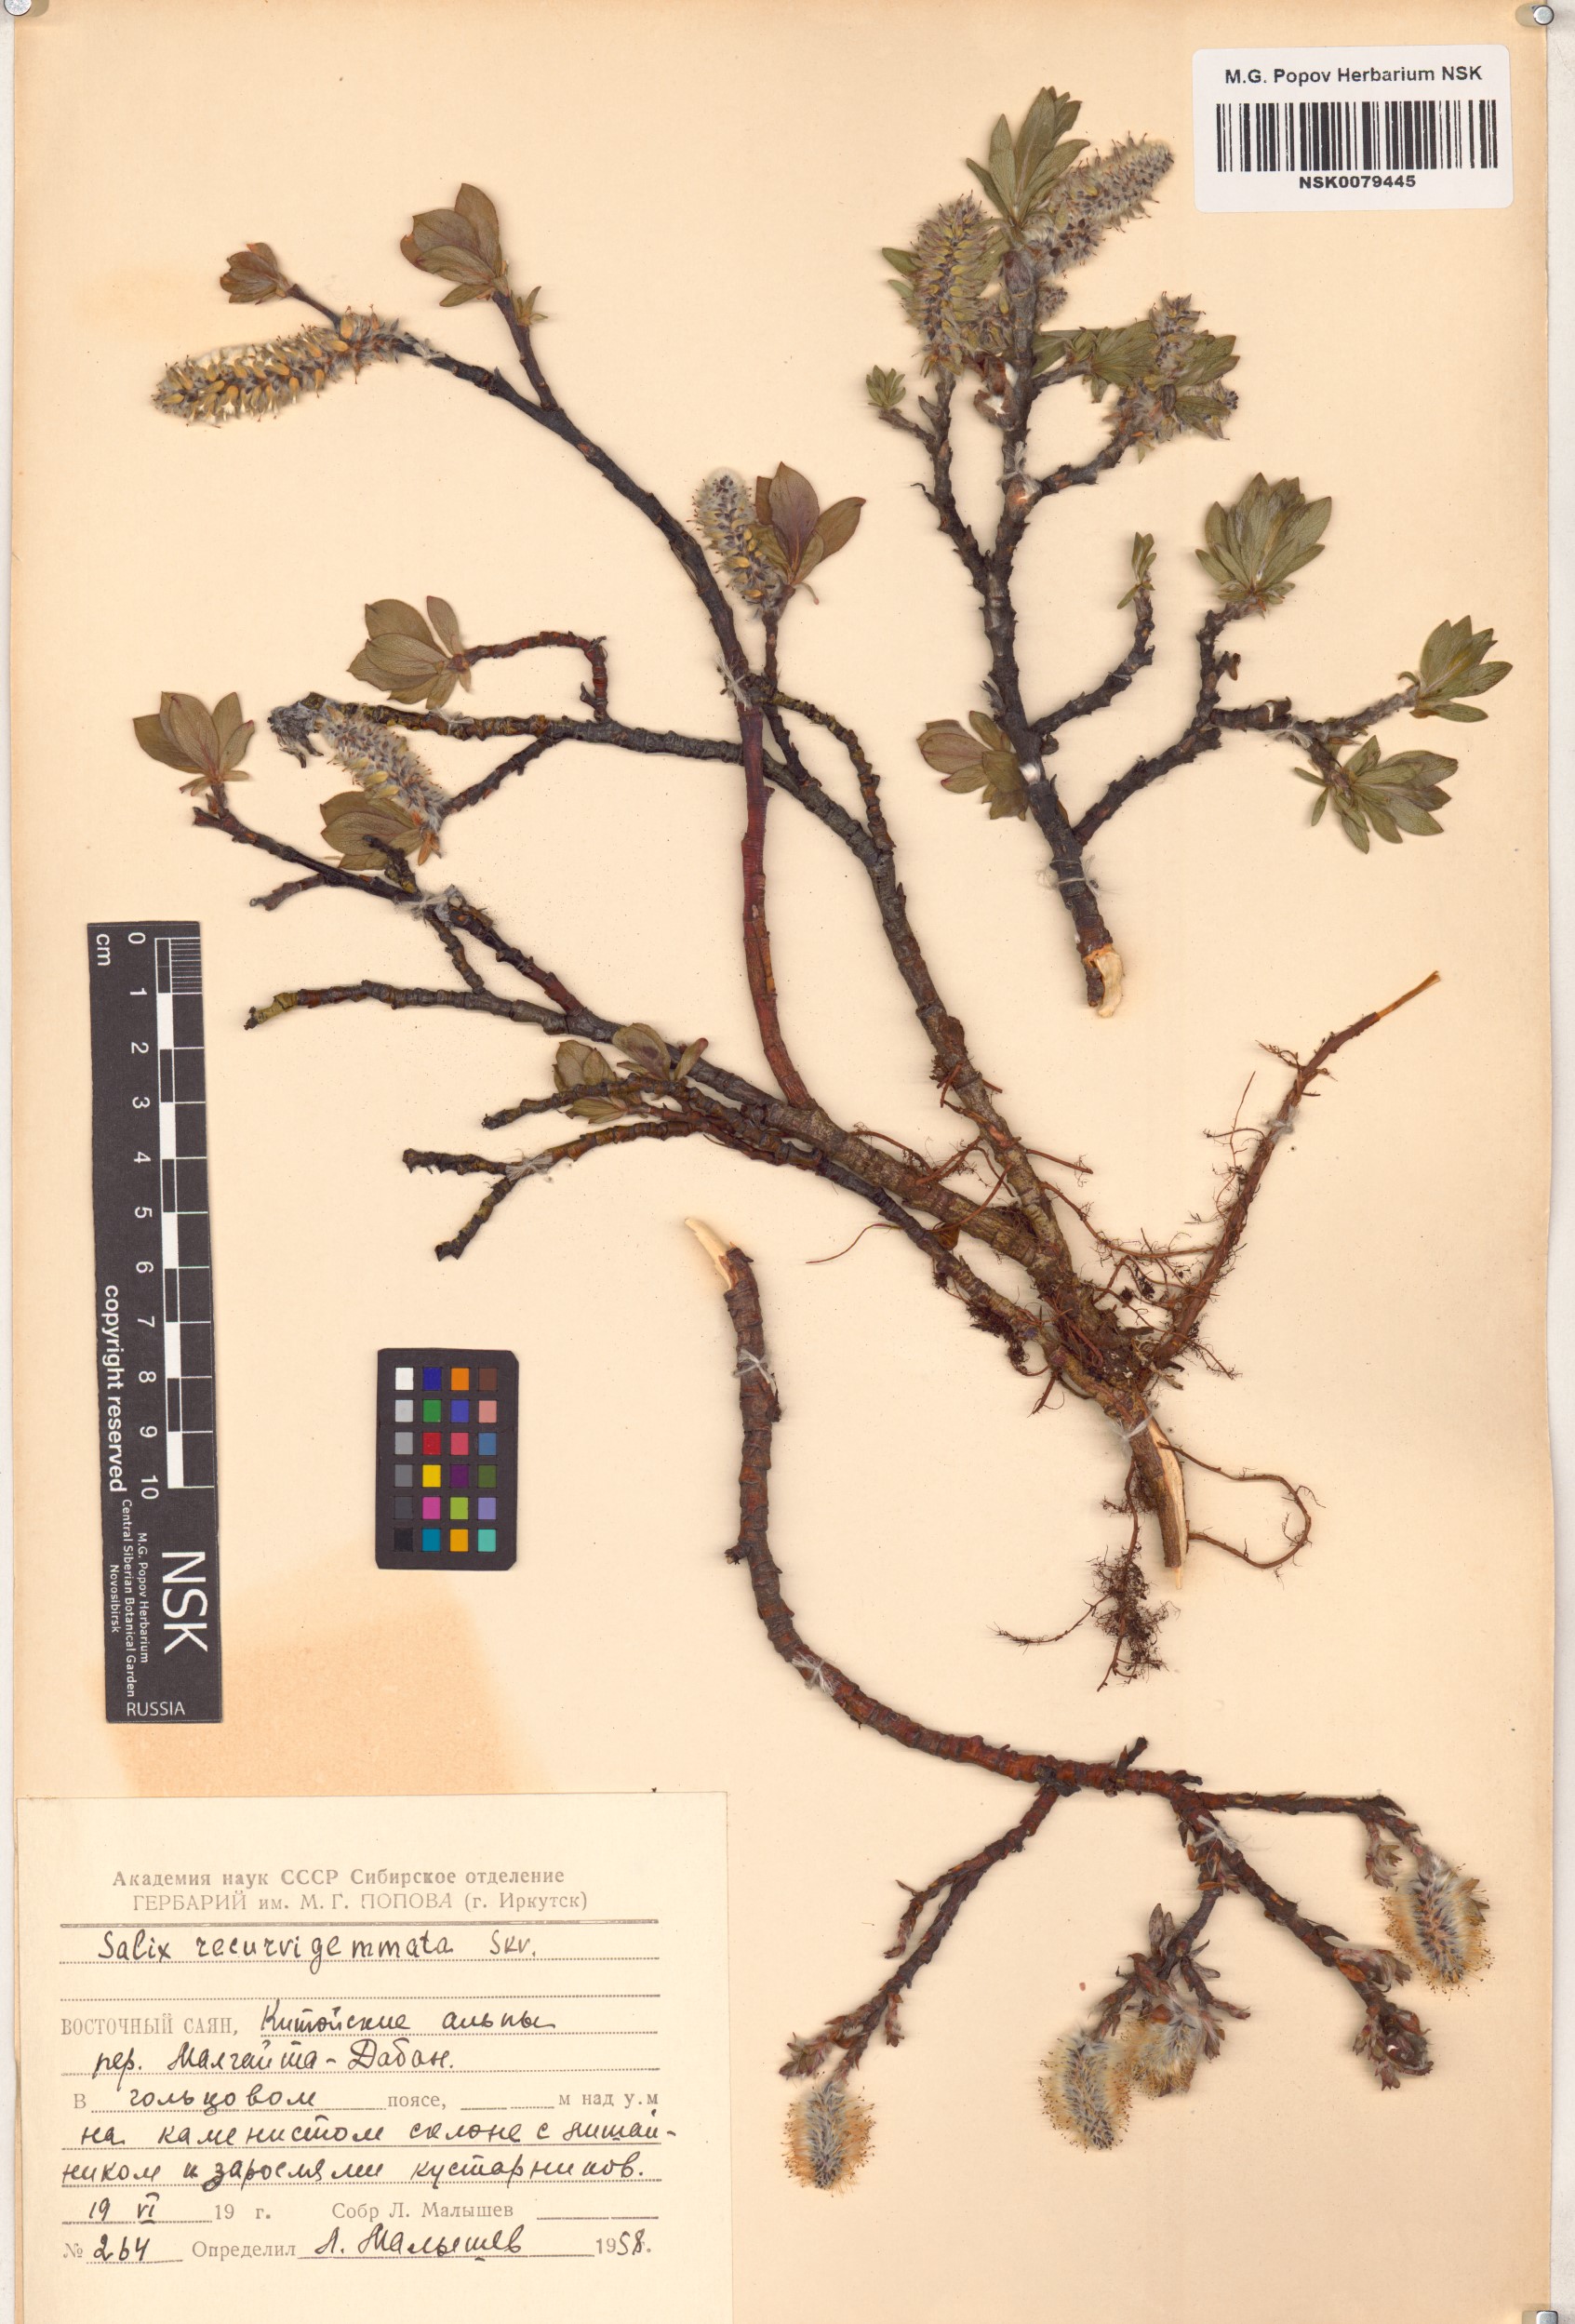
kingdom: Plantae
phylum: Tracheophyta
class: Magnoliopsida
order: Malpighiales
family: Salicaceae
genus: Salix
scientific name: Salix recurvigemmata
